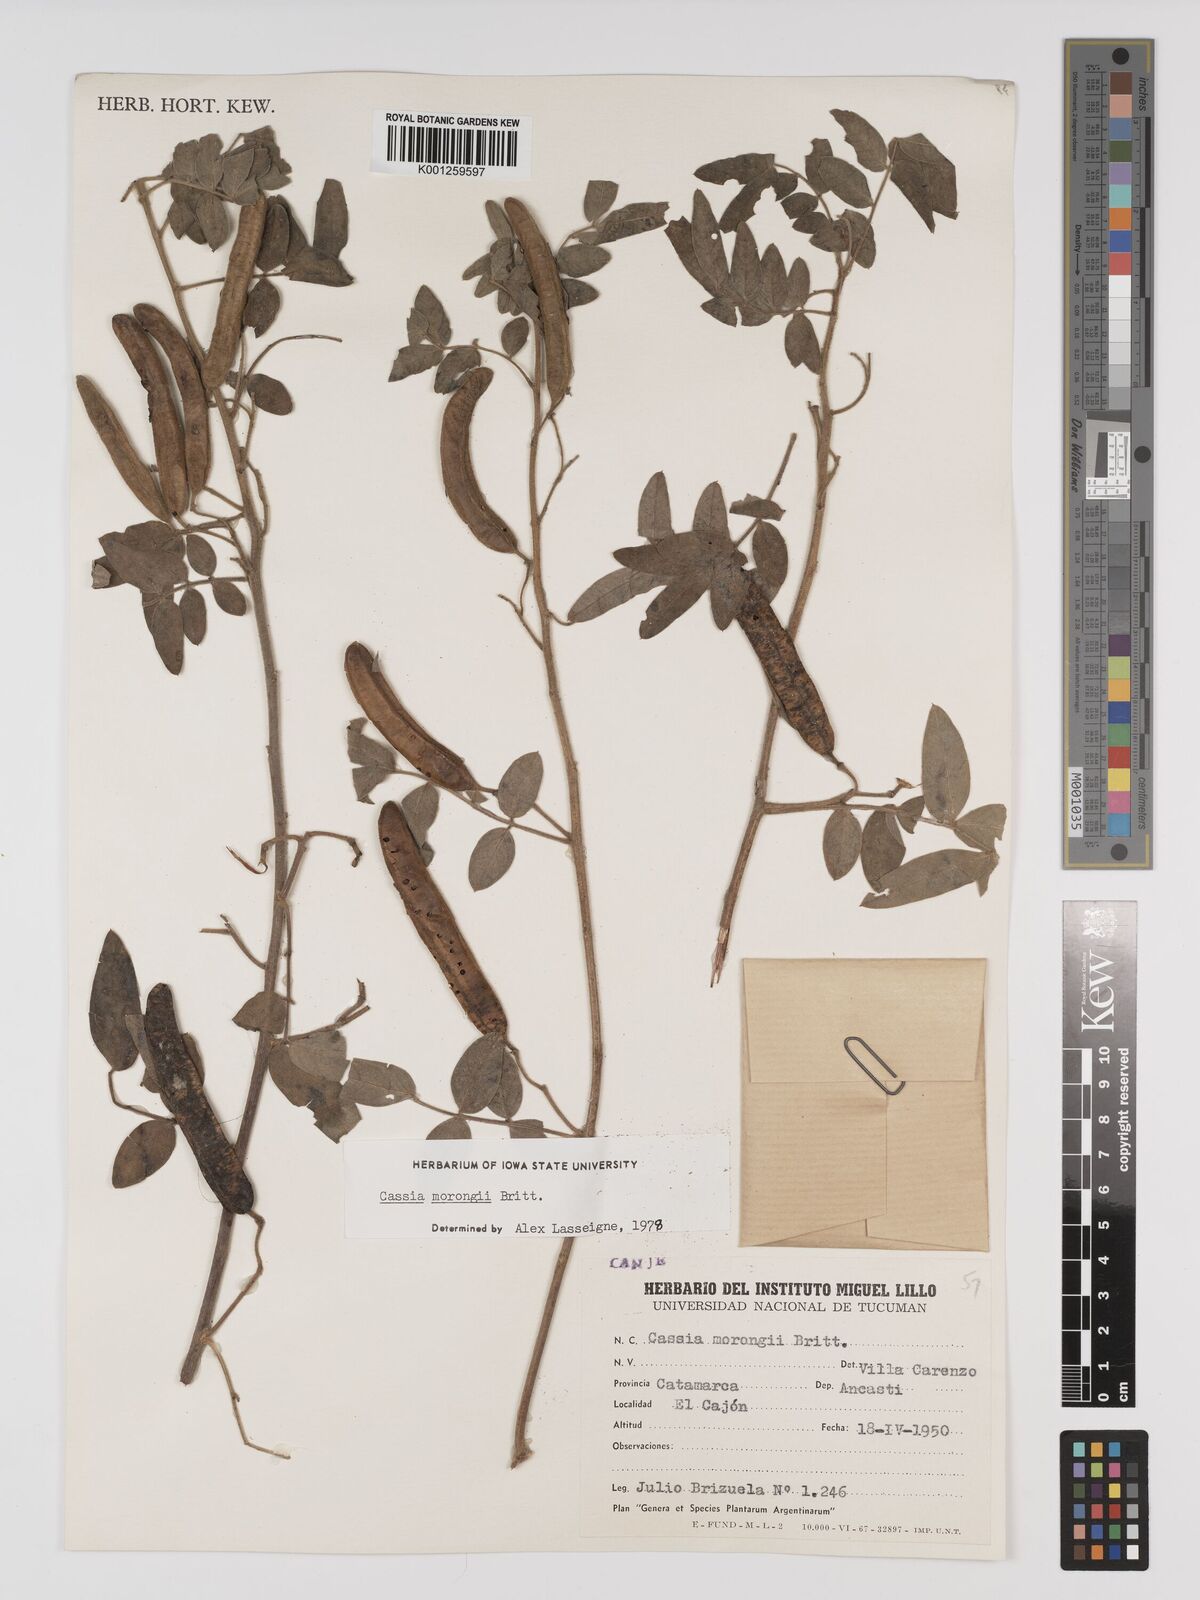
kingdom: Plantae
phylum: Tracheophyta
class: Magnoliopsida
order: Fabales
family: Fabaceae
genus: Senna
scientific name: Senna morongii
